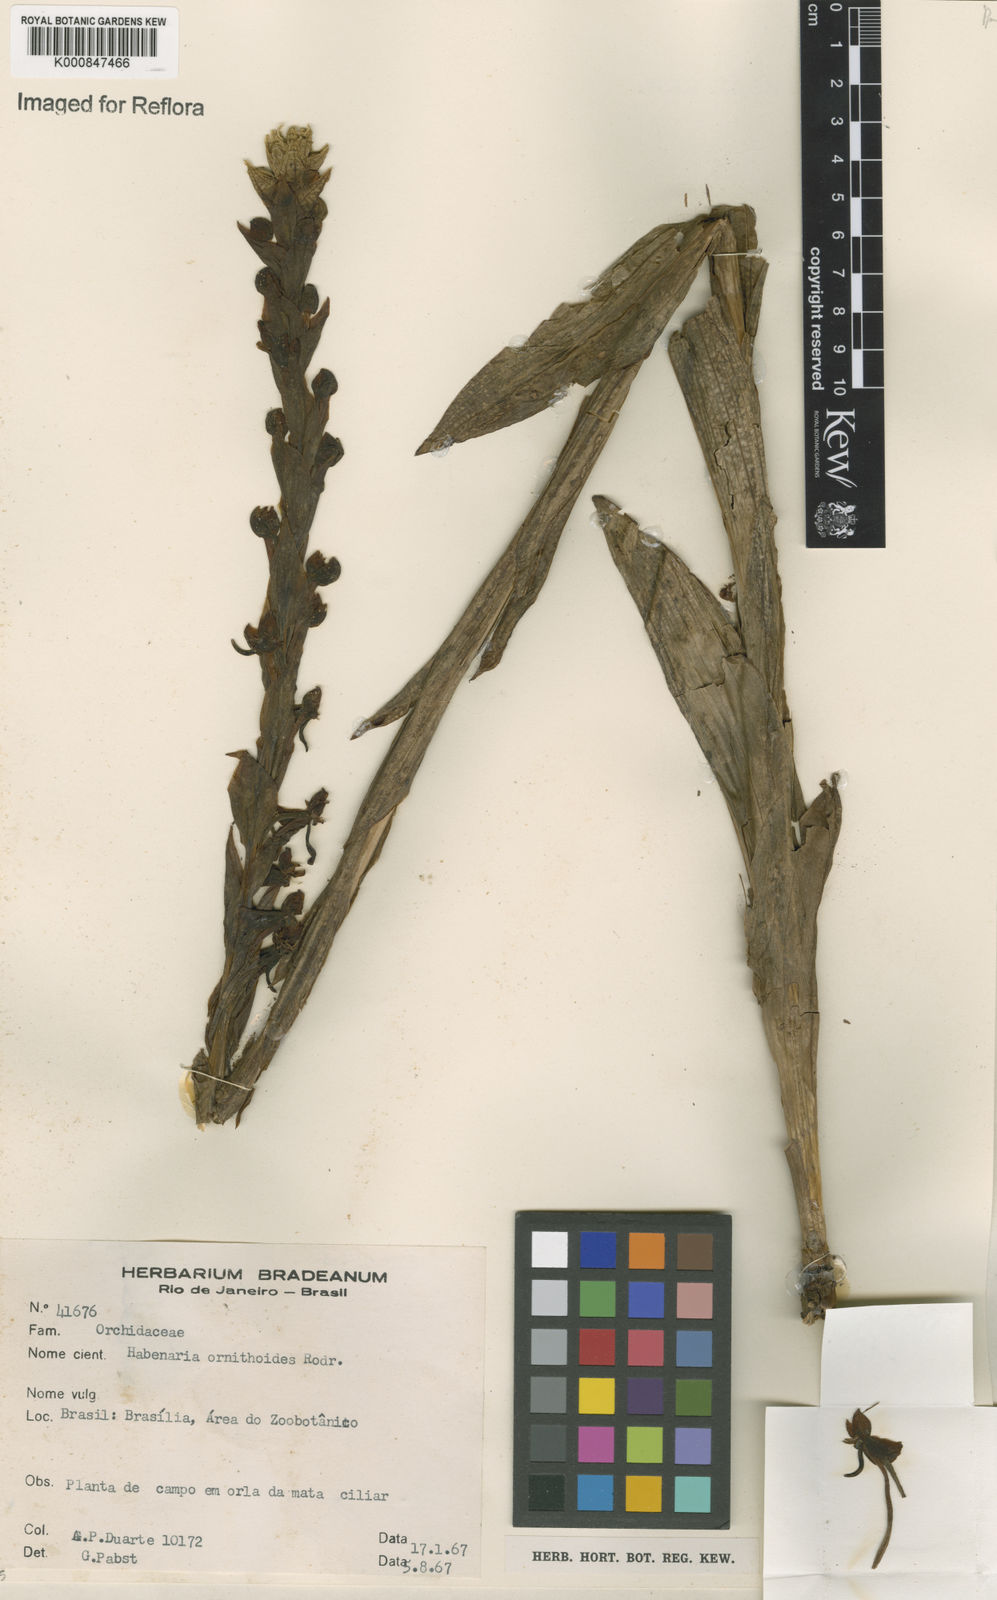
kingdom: Plantae
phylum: Tracheophyta
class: Liliopsida
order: Asparagales
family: Orchidaceae
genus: Habenaria
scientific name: Habenaria obtusa
